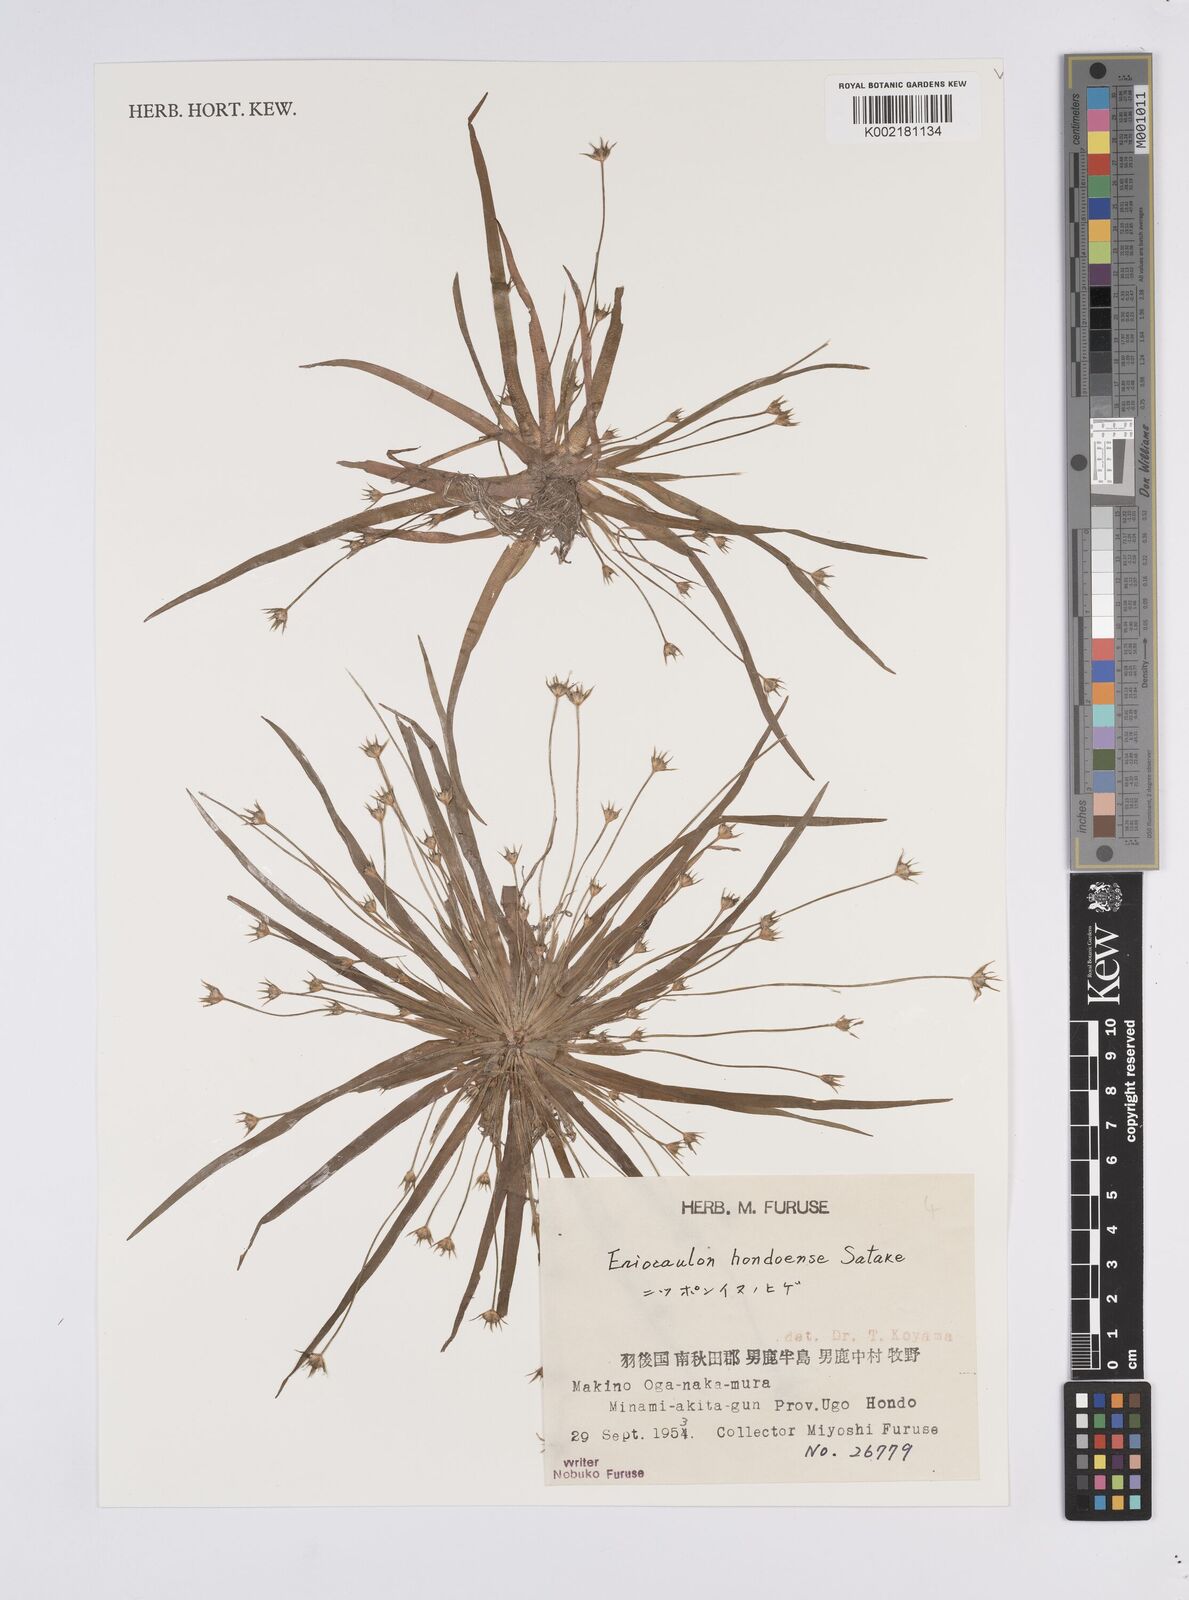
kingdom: Plantae
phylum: Tracheophyta
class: Liliopsida
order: Poales
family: Eriocaulaceae
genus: Eriocaulon
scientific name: Eriocaulon taquetii
